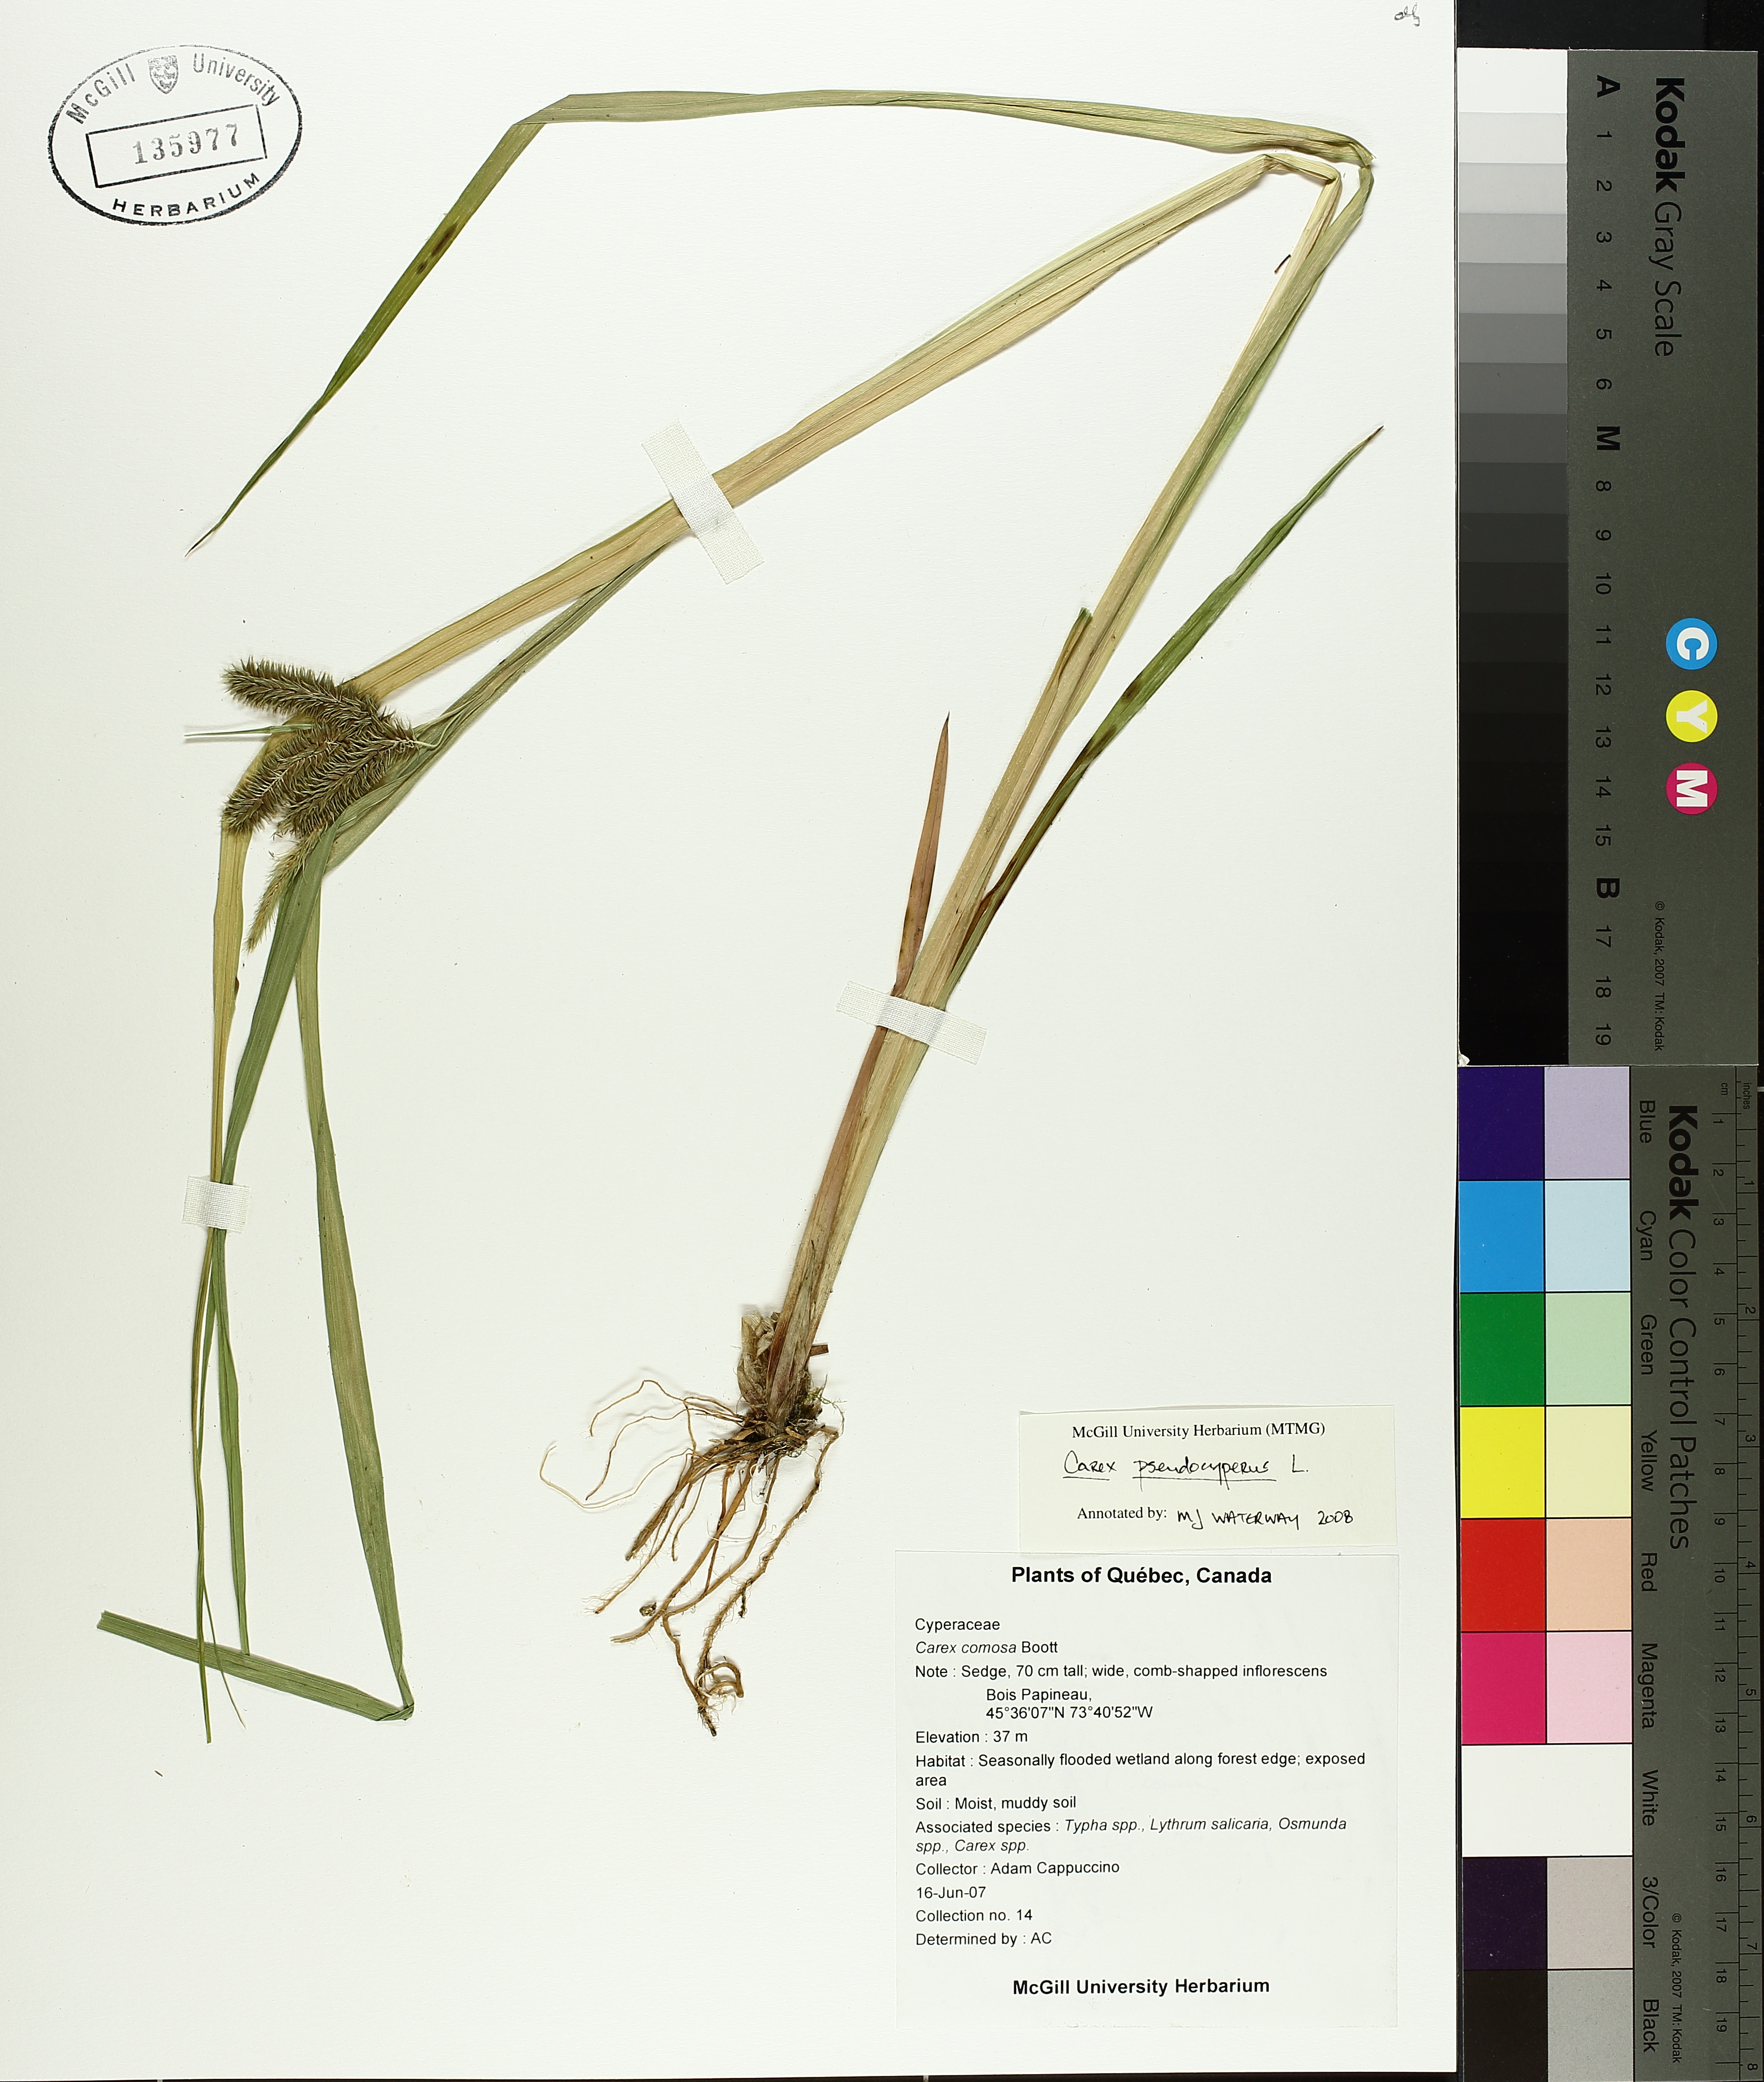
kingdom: Plantae
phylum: Tracheophyta
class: Liliopsida
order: Poales
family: Cyperaceae
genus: Carex
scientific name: Carex pseudocyperus
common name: Cyperus sedge
